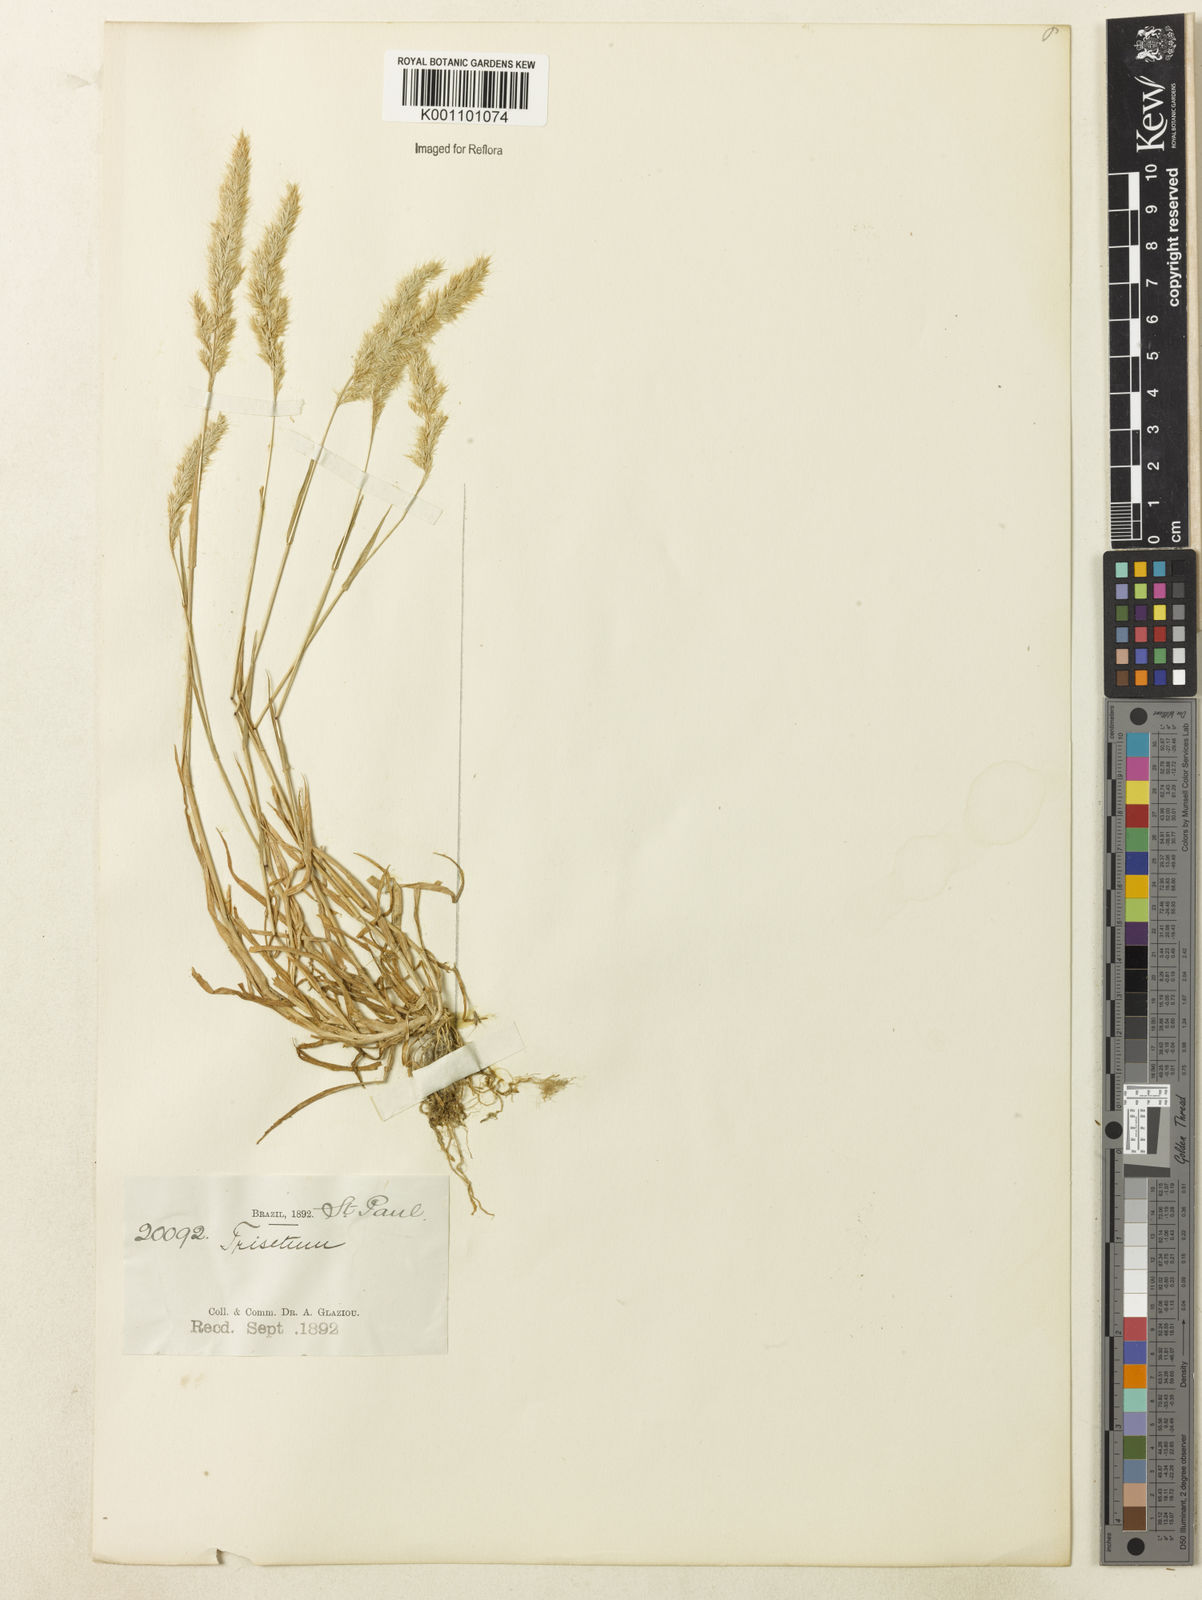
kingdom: Plantae
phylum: Tracheophyta
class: Liliopsida
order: Poales
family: Poaceae
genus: Trisetaria
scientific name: Trisetaria panicea
